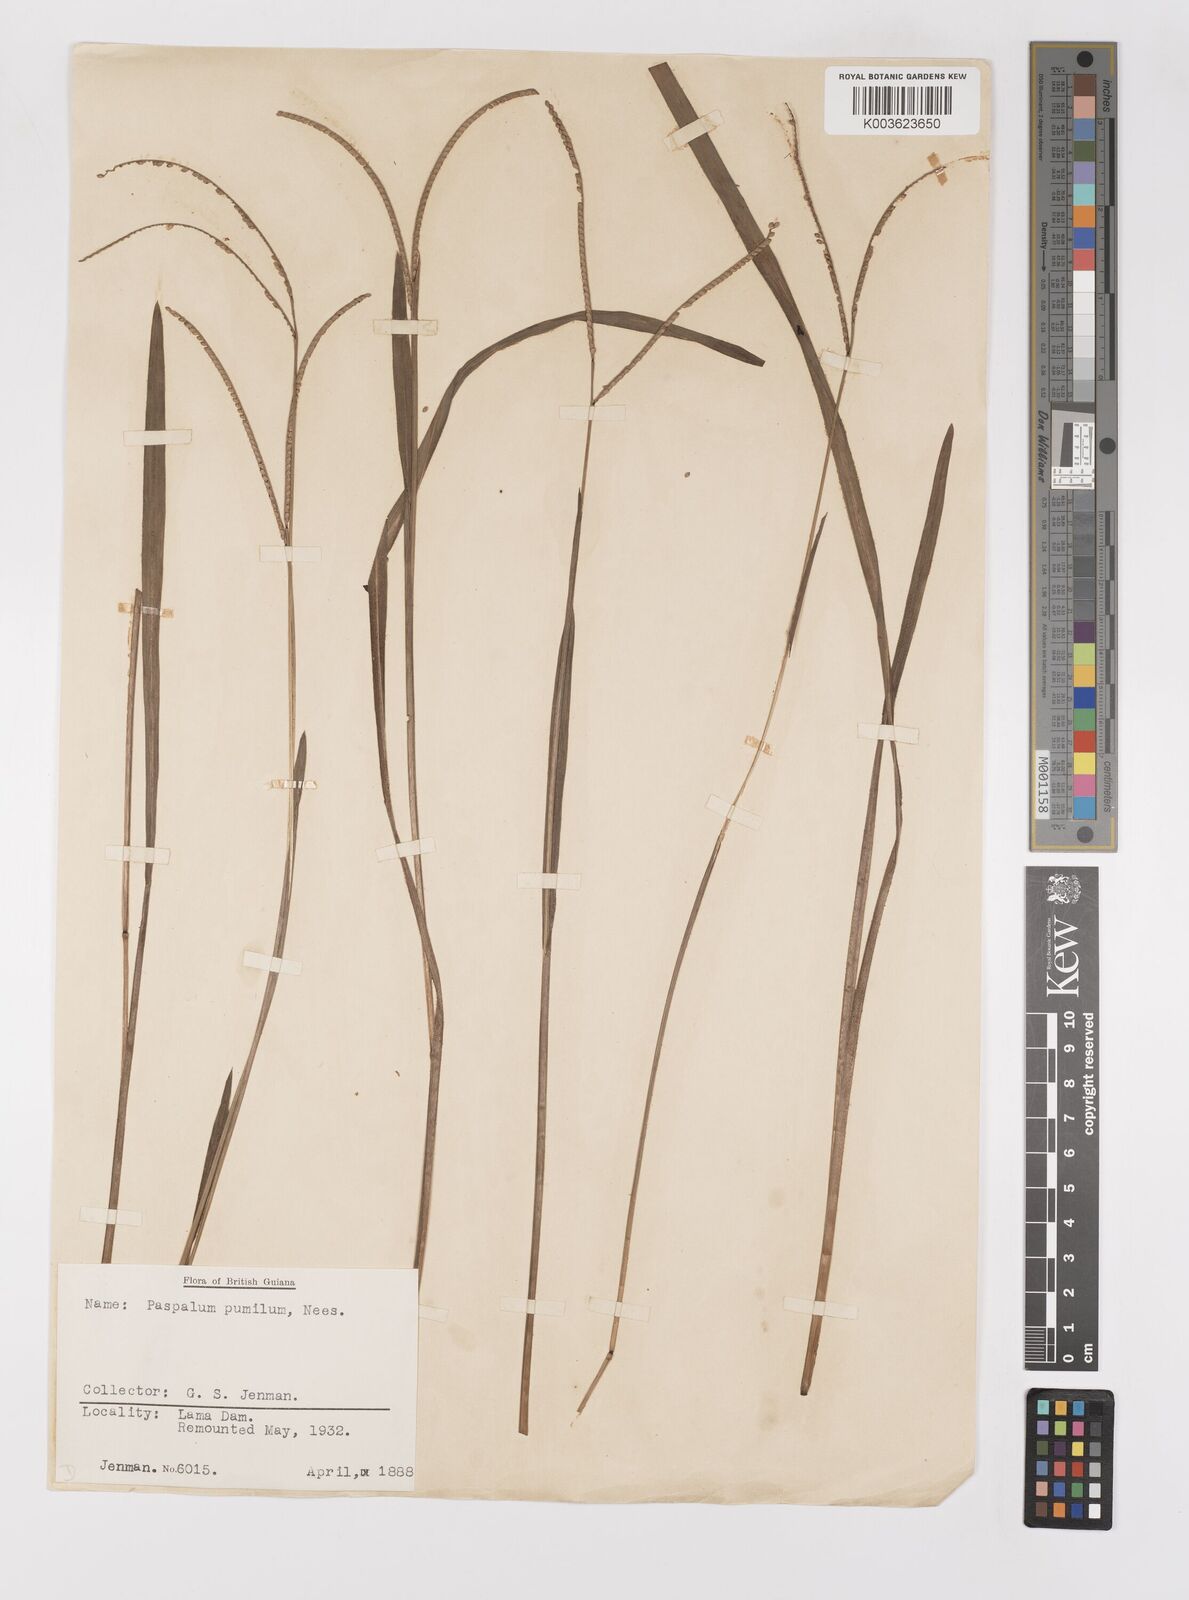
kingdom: Plantae
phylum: Tracheophyta
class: Liliopsida
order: Poales
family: Poaceae
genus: Paspalum
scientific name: Paspalum pumilum
